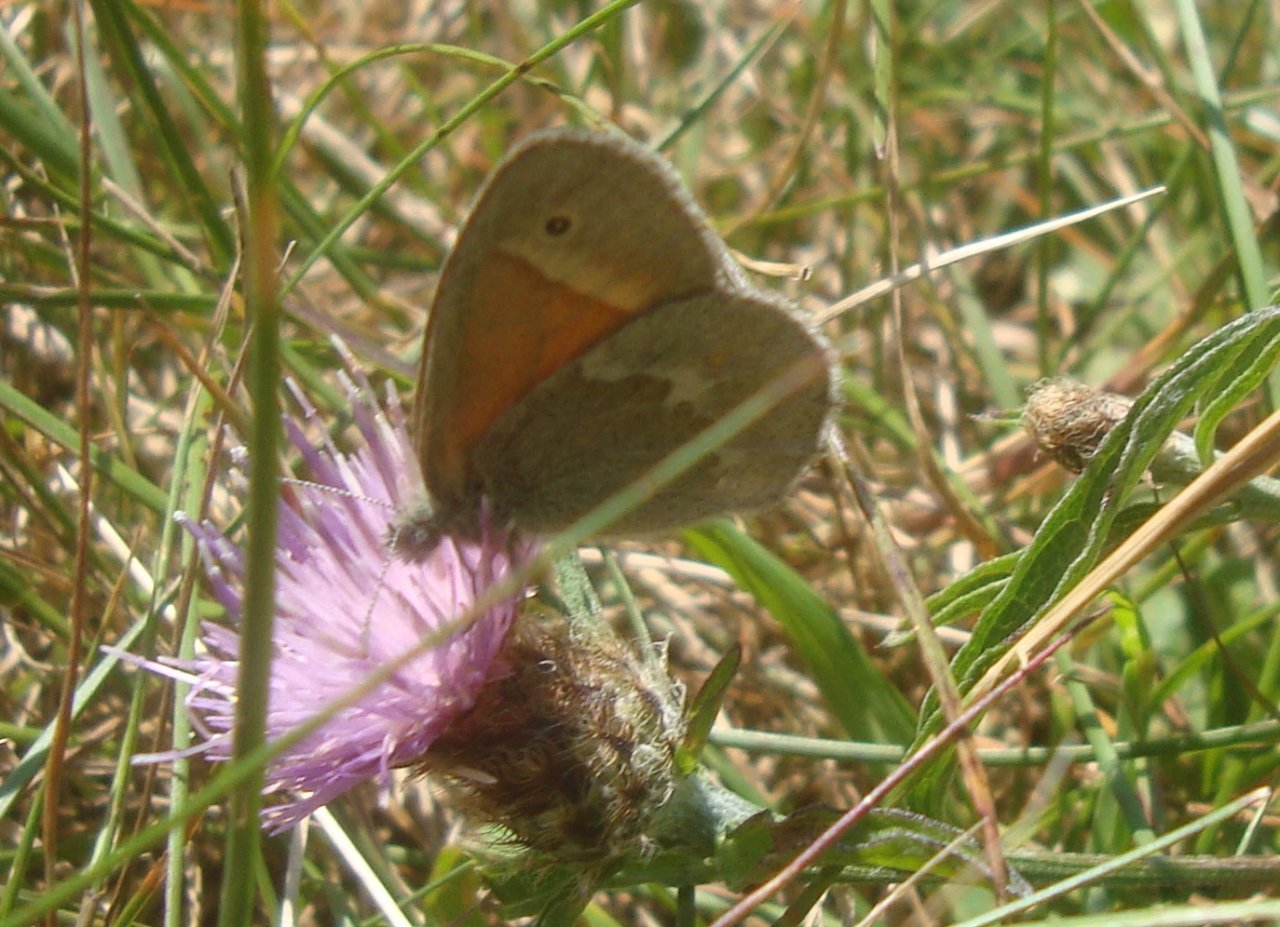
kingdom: Animalia
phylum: Arthropoda
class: Insecta
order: Lepidoptera
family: Nymphalidae
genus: Coenonympha
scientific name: Coenonympha tullia
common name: Large Heath
